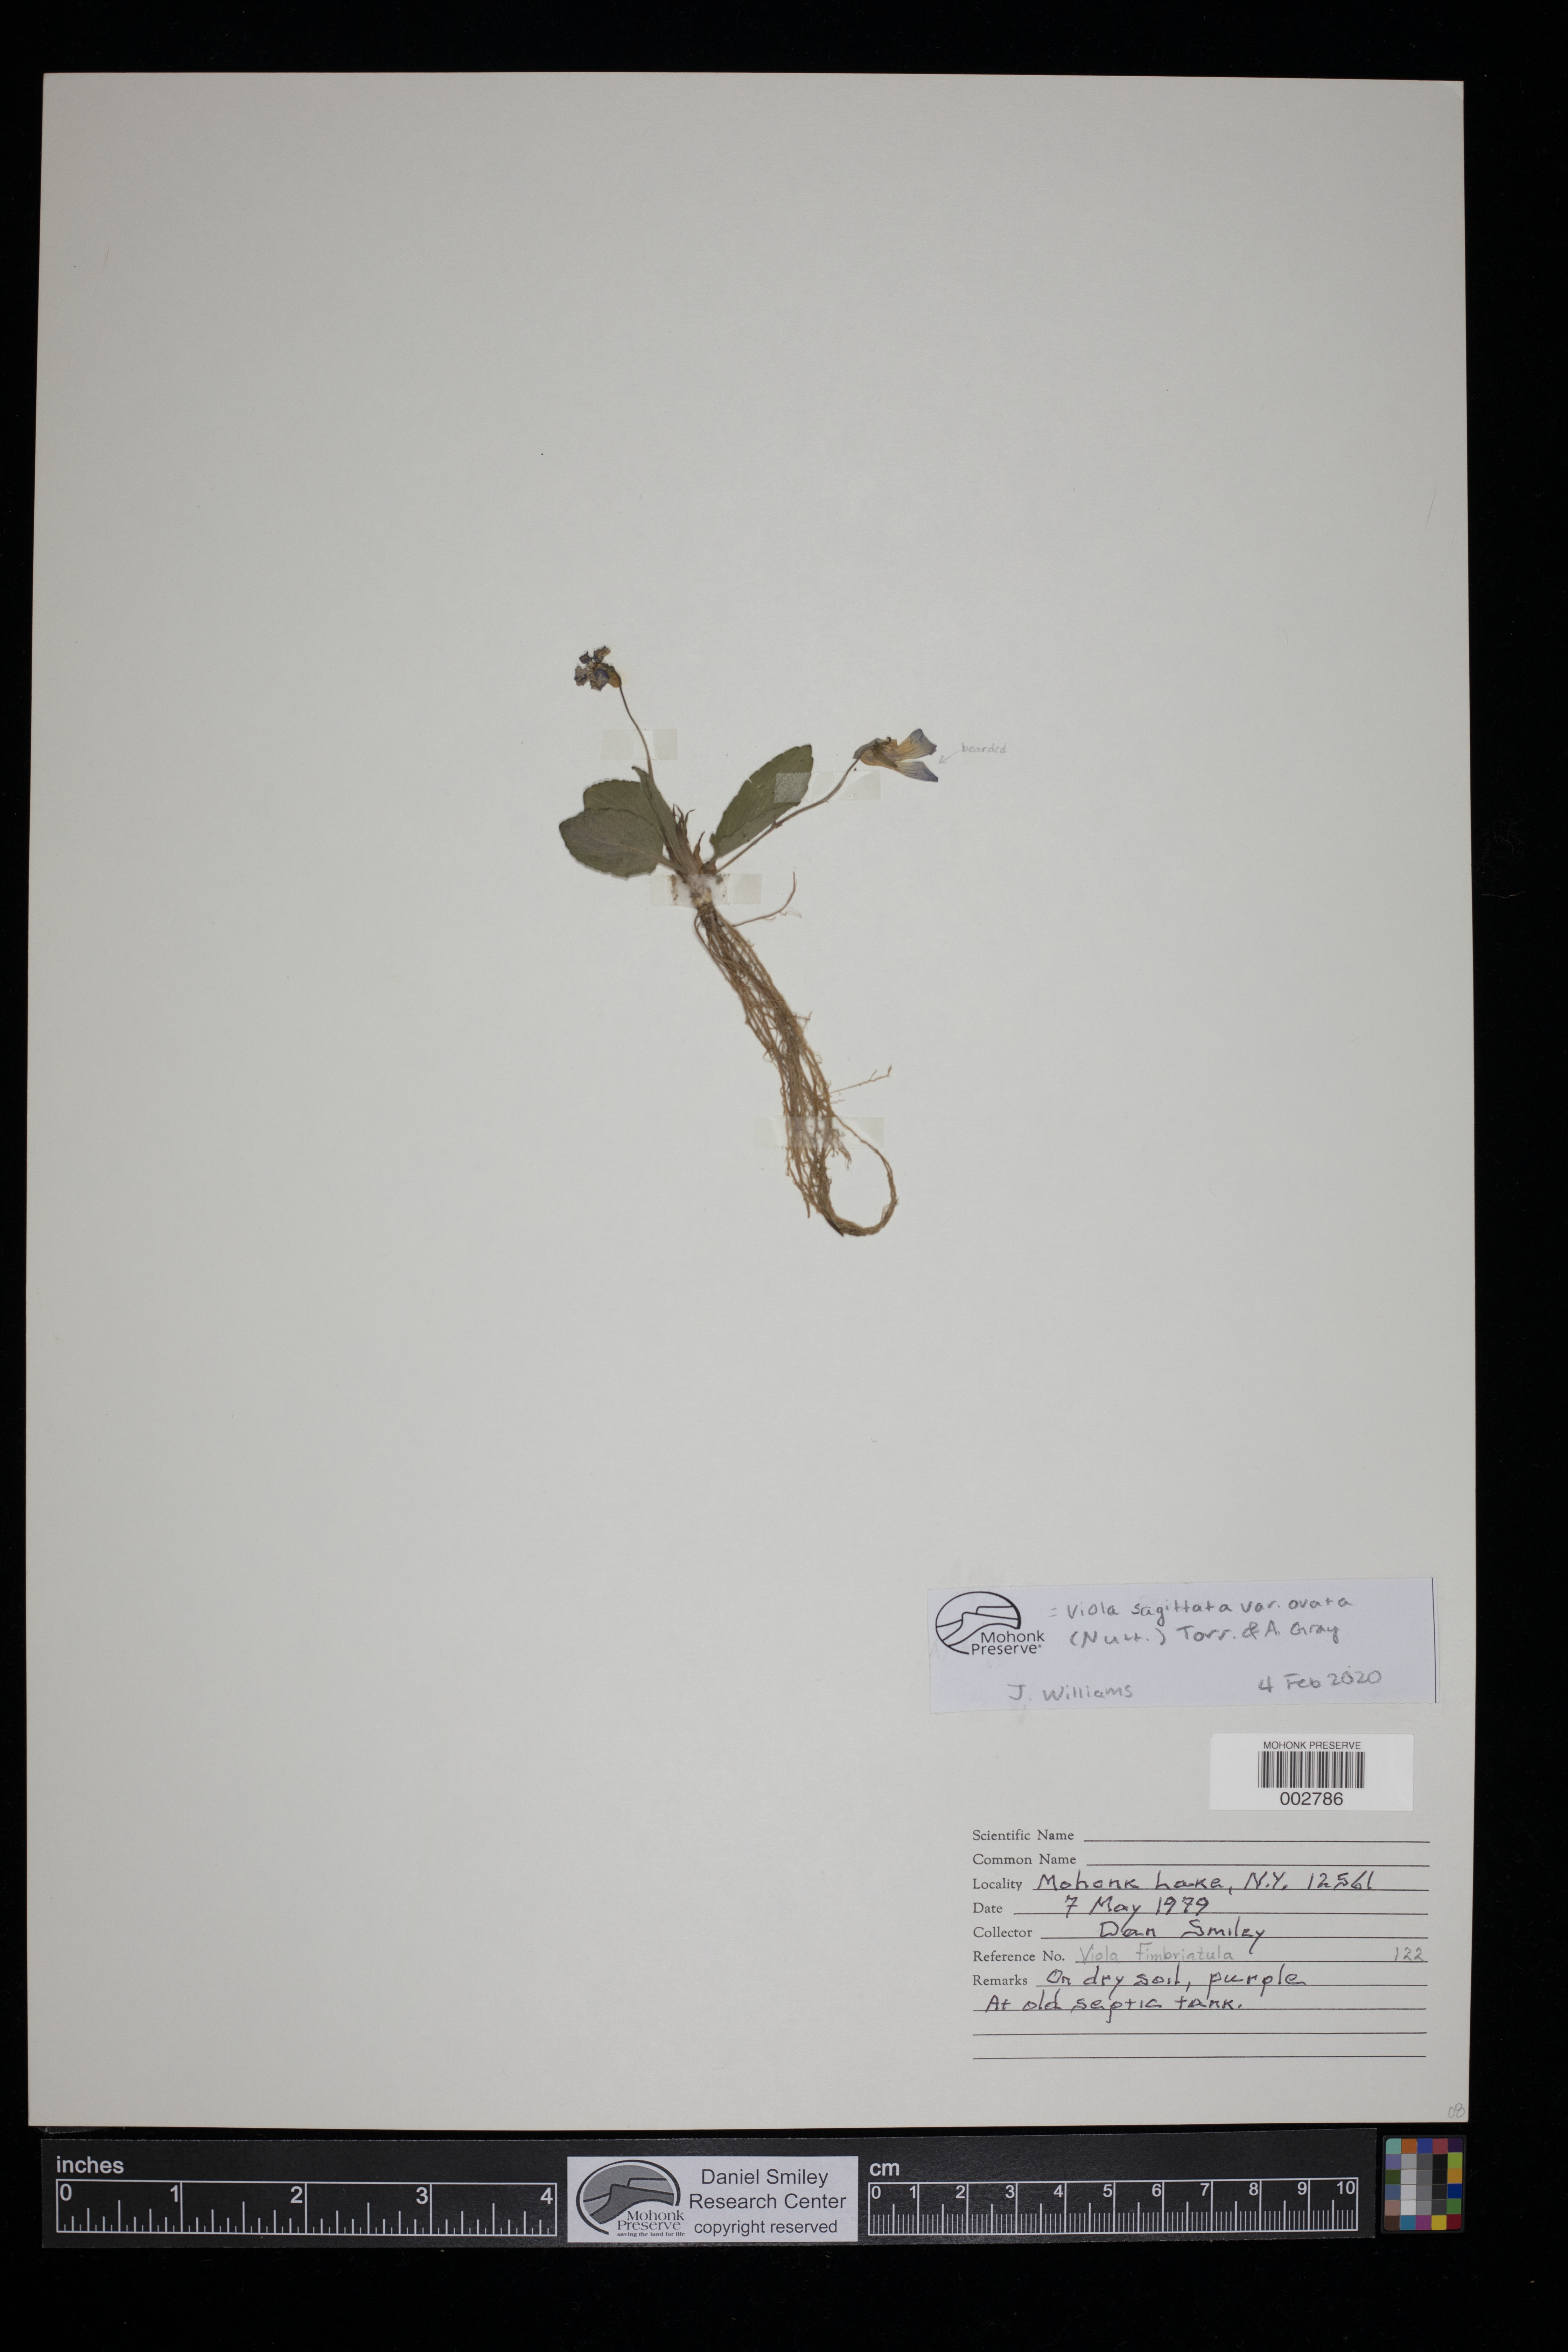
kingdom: Plantae
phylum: Tracheophyta
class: Magnoliopsida
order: Malpighiales
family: Violaceae
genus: Viola
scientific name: Viola fimbriatula
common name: Sand violet
